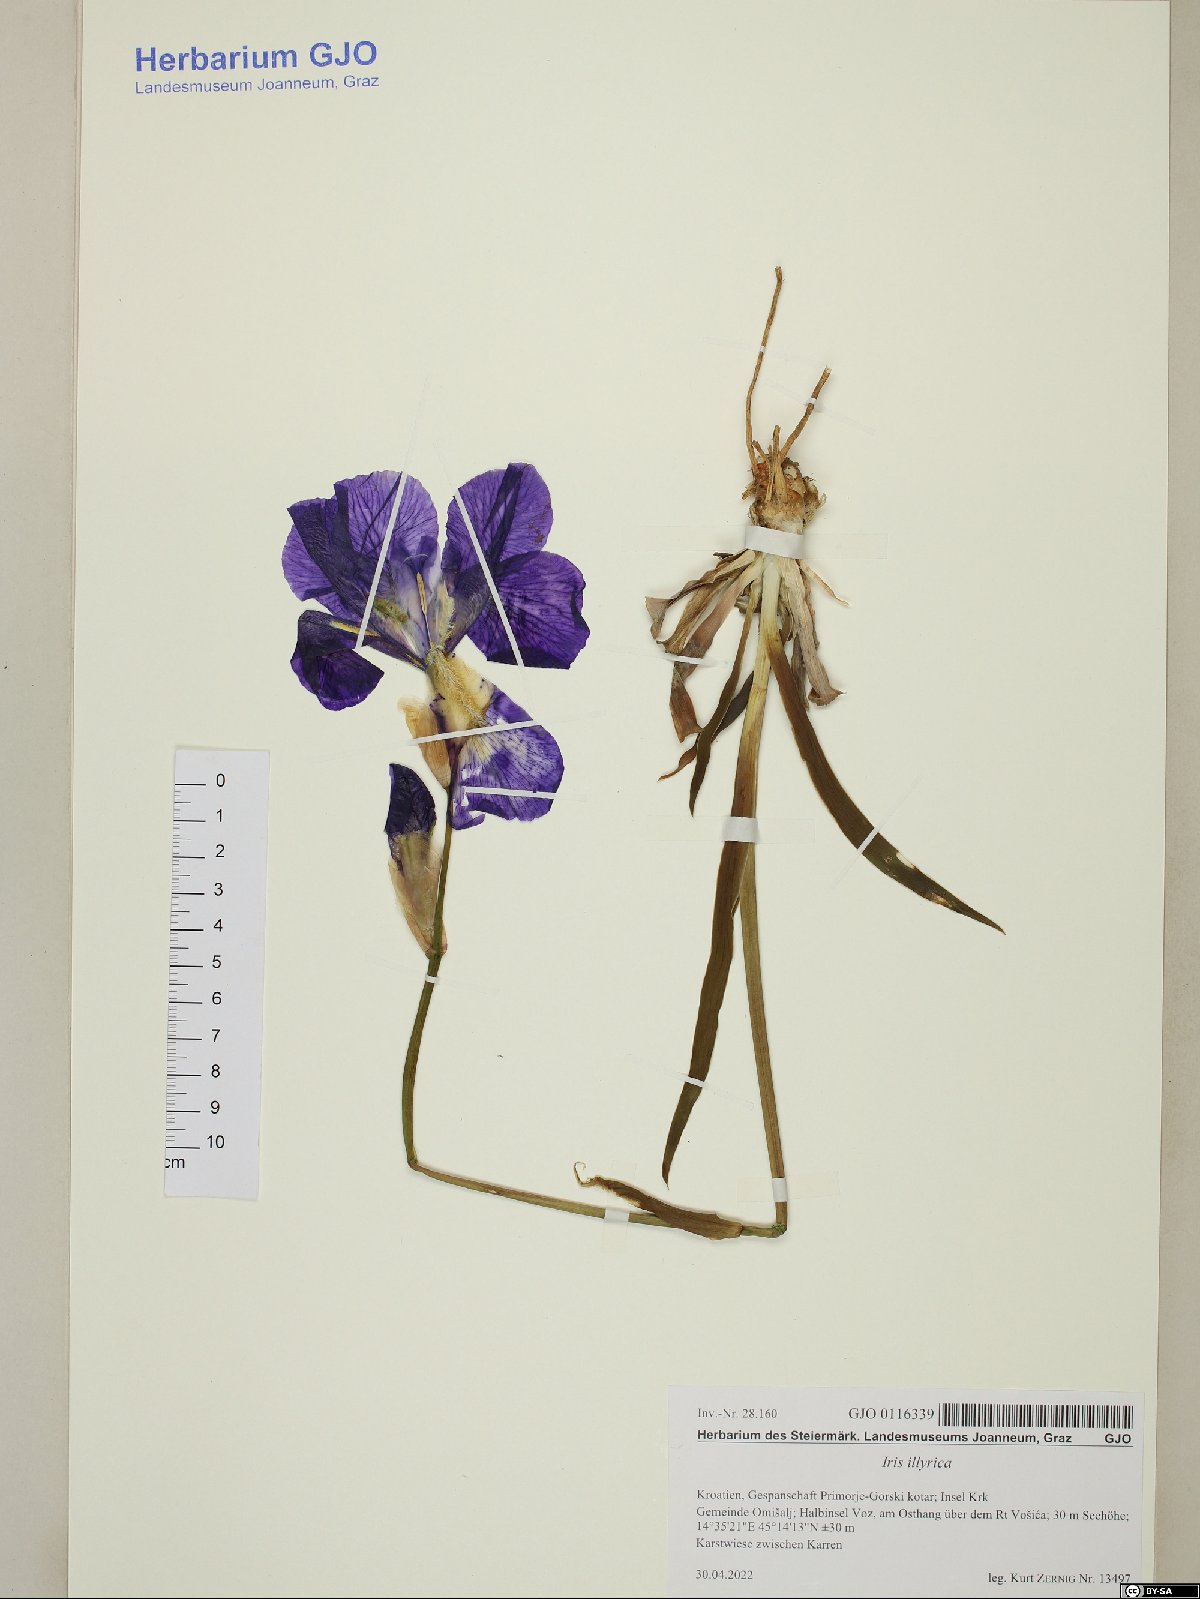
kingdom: Plantae
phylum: Tracheophyta
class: Liliopsida
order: Asparagales
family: Iridaceae
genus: Iris
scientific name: Iris pallida
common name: Sweet iris
